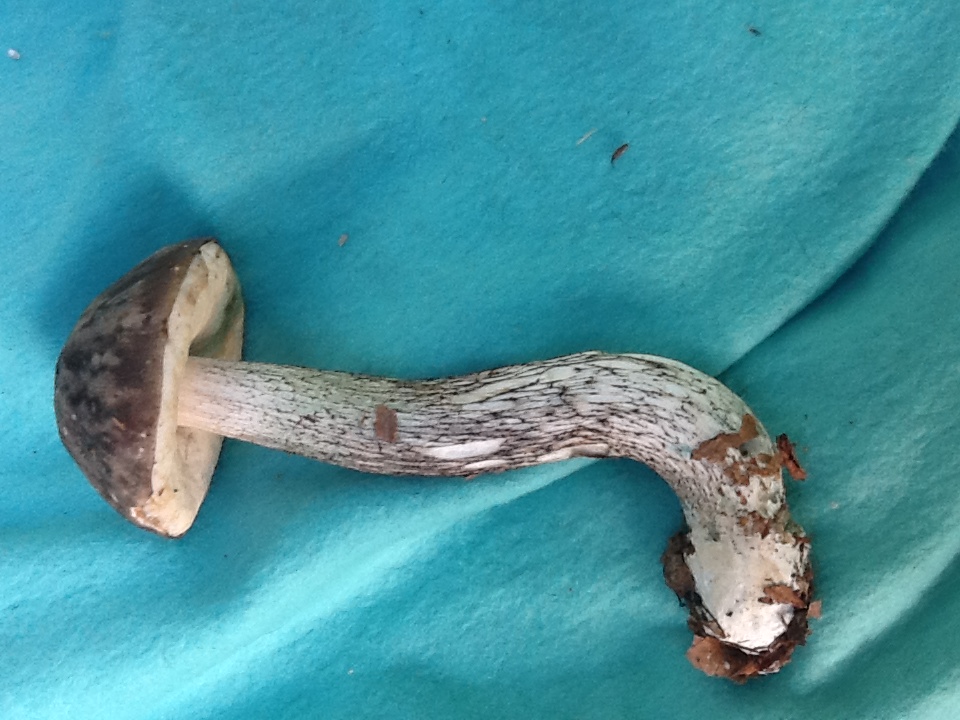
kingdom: Fungi
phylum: Basidiomycota
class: Agaricomycetes
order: Boletales
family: Boletaceae
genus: Leccinum
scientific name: Leccinum variicolor
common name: flammet skælrørhat
